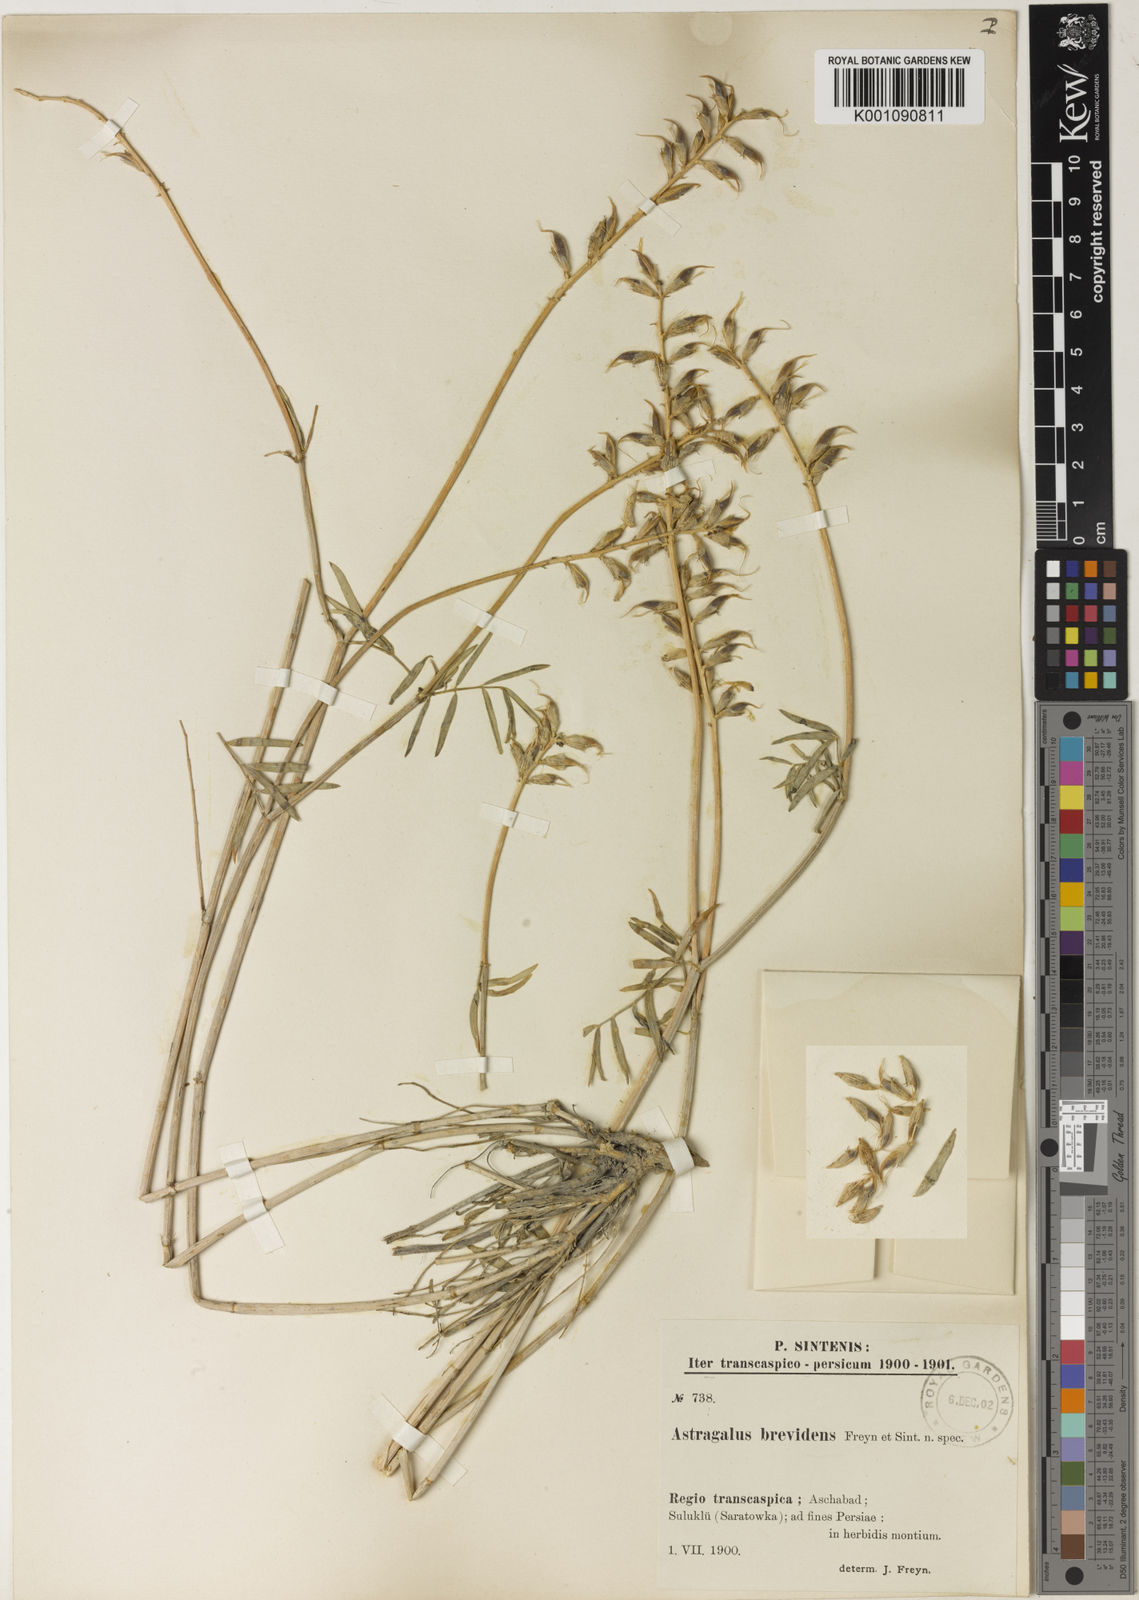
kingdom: Plantae
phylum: Tracheophyta
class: Magnoliopsida
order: Fabales
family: Fabaceae
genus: Astragalus
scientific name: Astragalus
